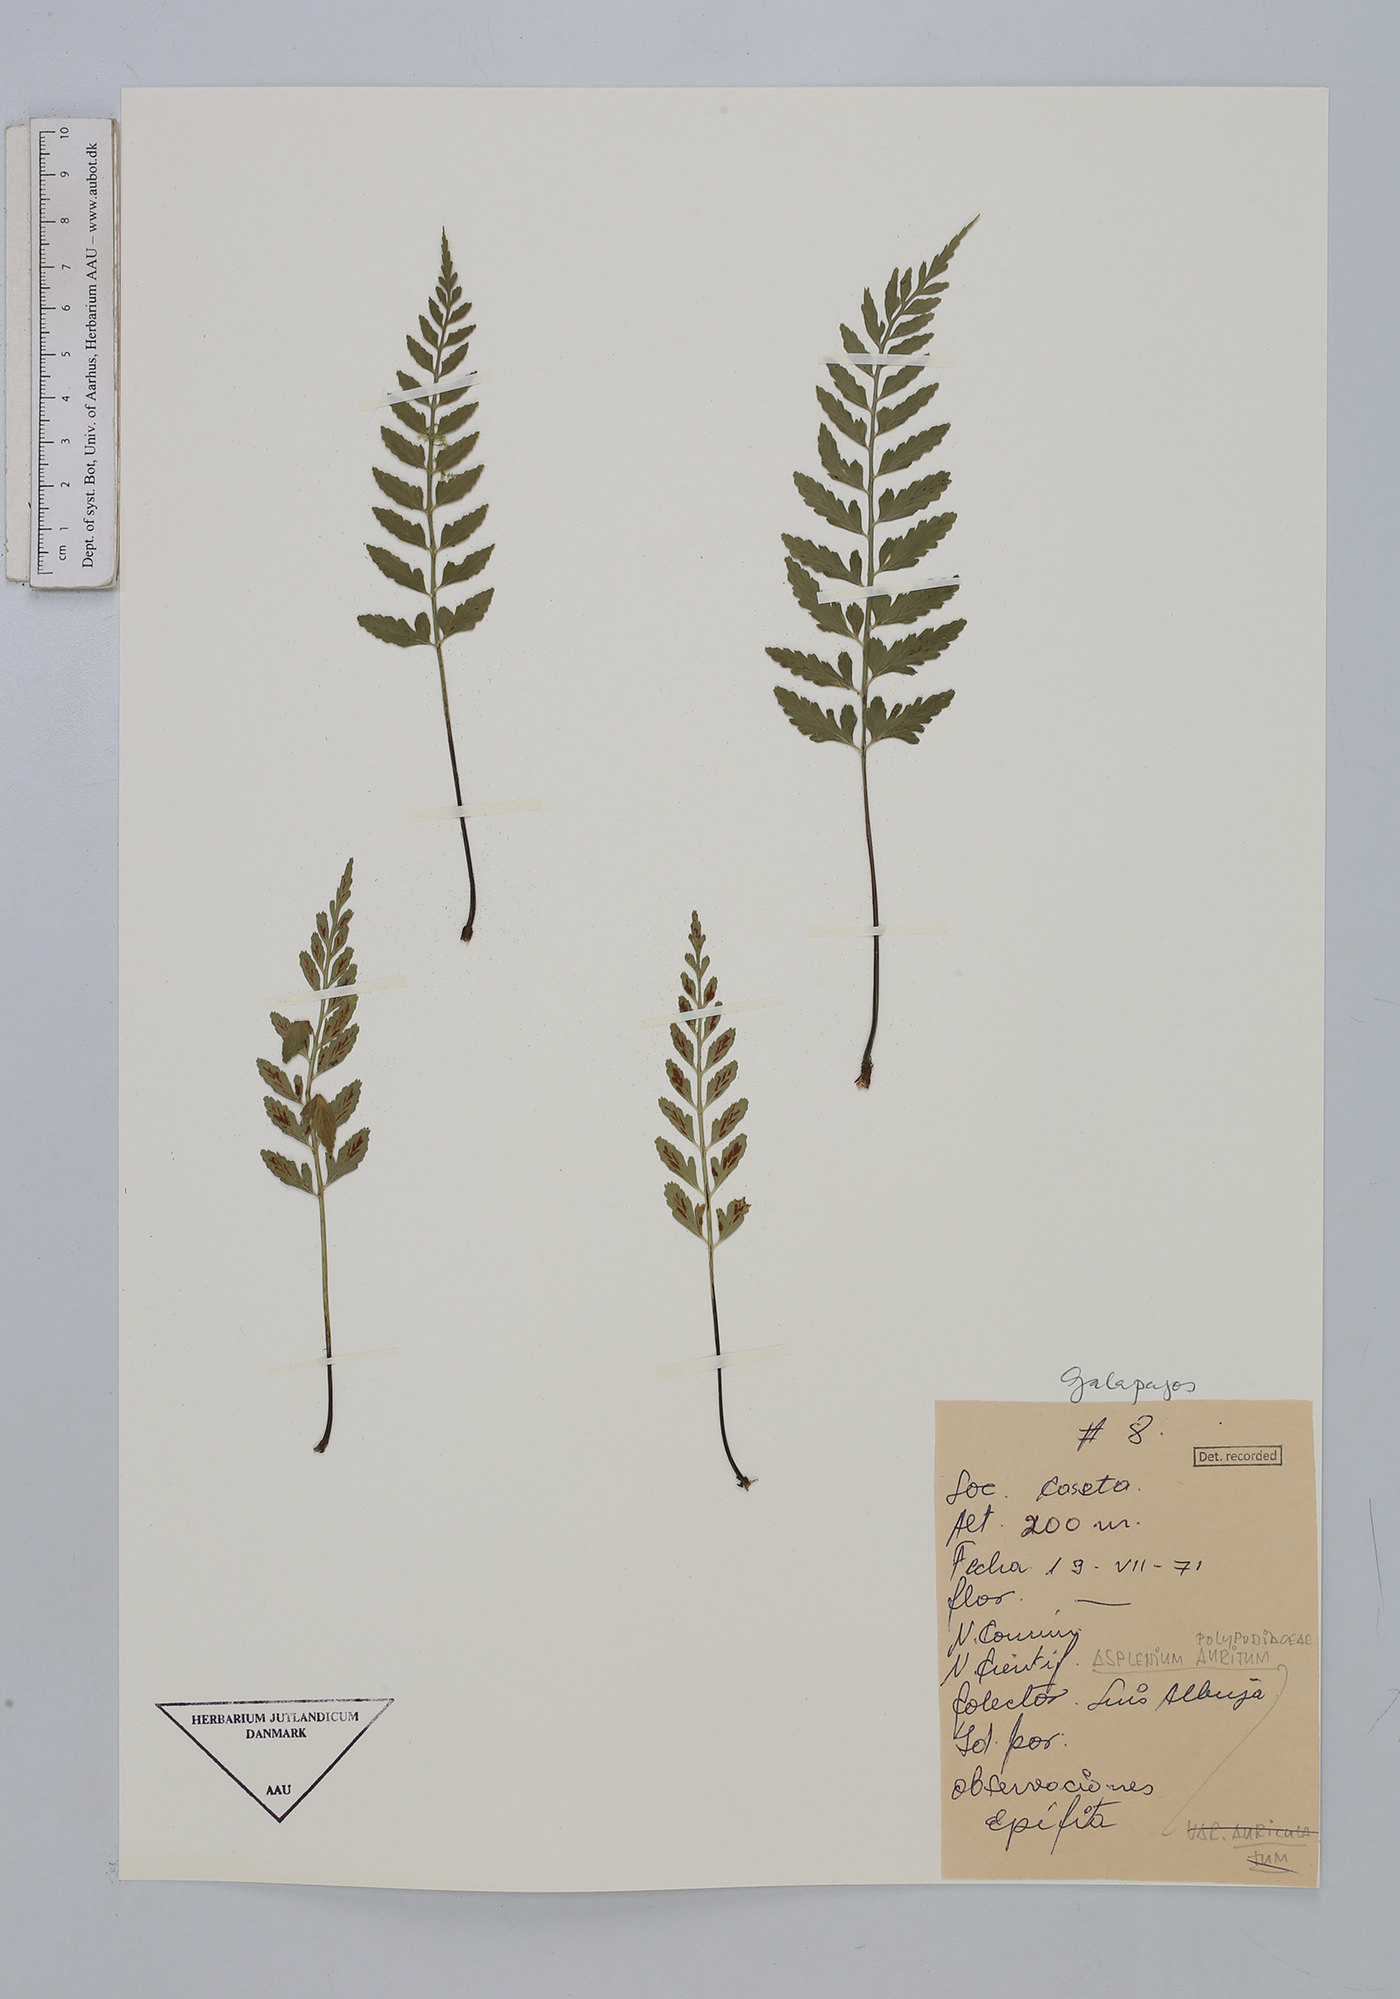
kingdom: Plantae
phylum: Tracheophyta
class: Polypodiopsida
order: Polypodiales
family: Aspleniaceae
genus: Asplenium
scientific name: Asplenium auritum
